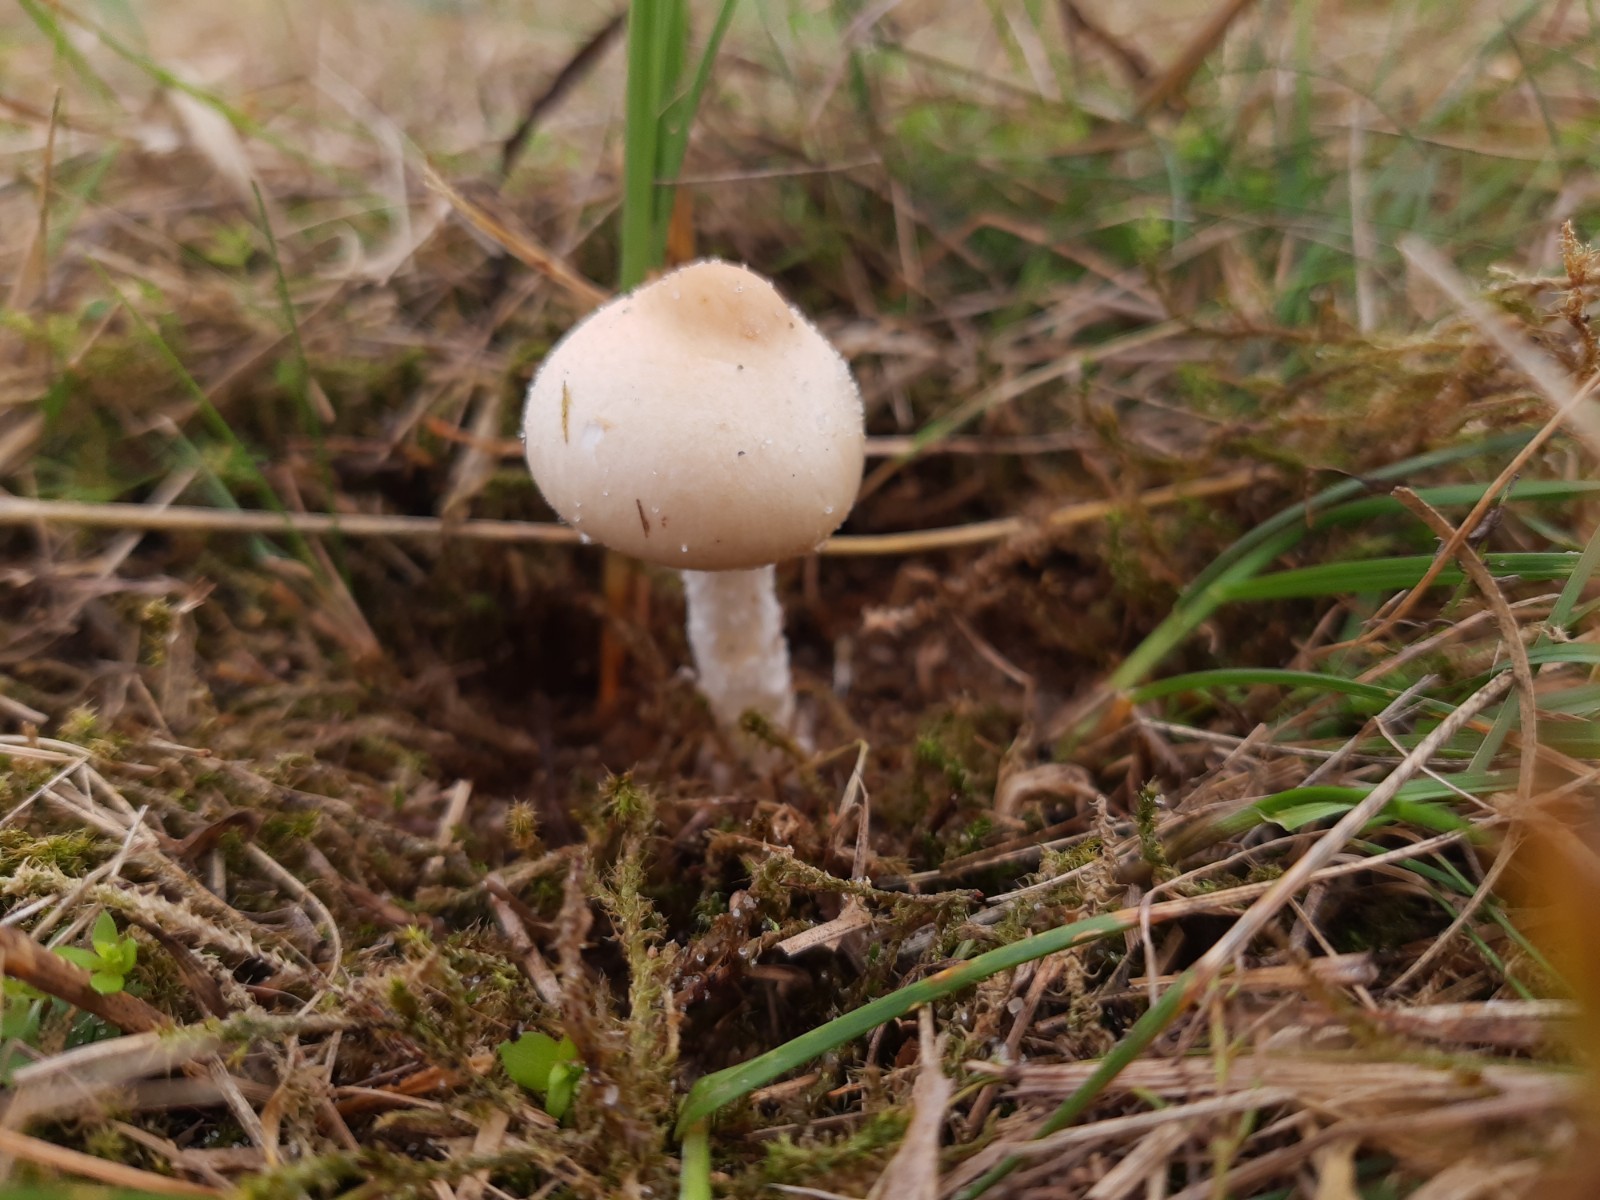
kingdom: Fungi
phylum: Basidiomycota
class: Agaricomycetes
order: Agaricales
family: Agaricaceae
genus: Lepiota
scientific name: Lepiota erminea
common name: hvid parasolhat
